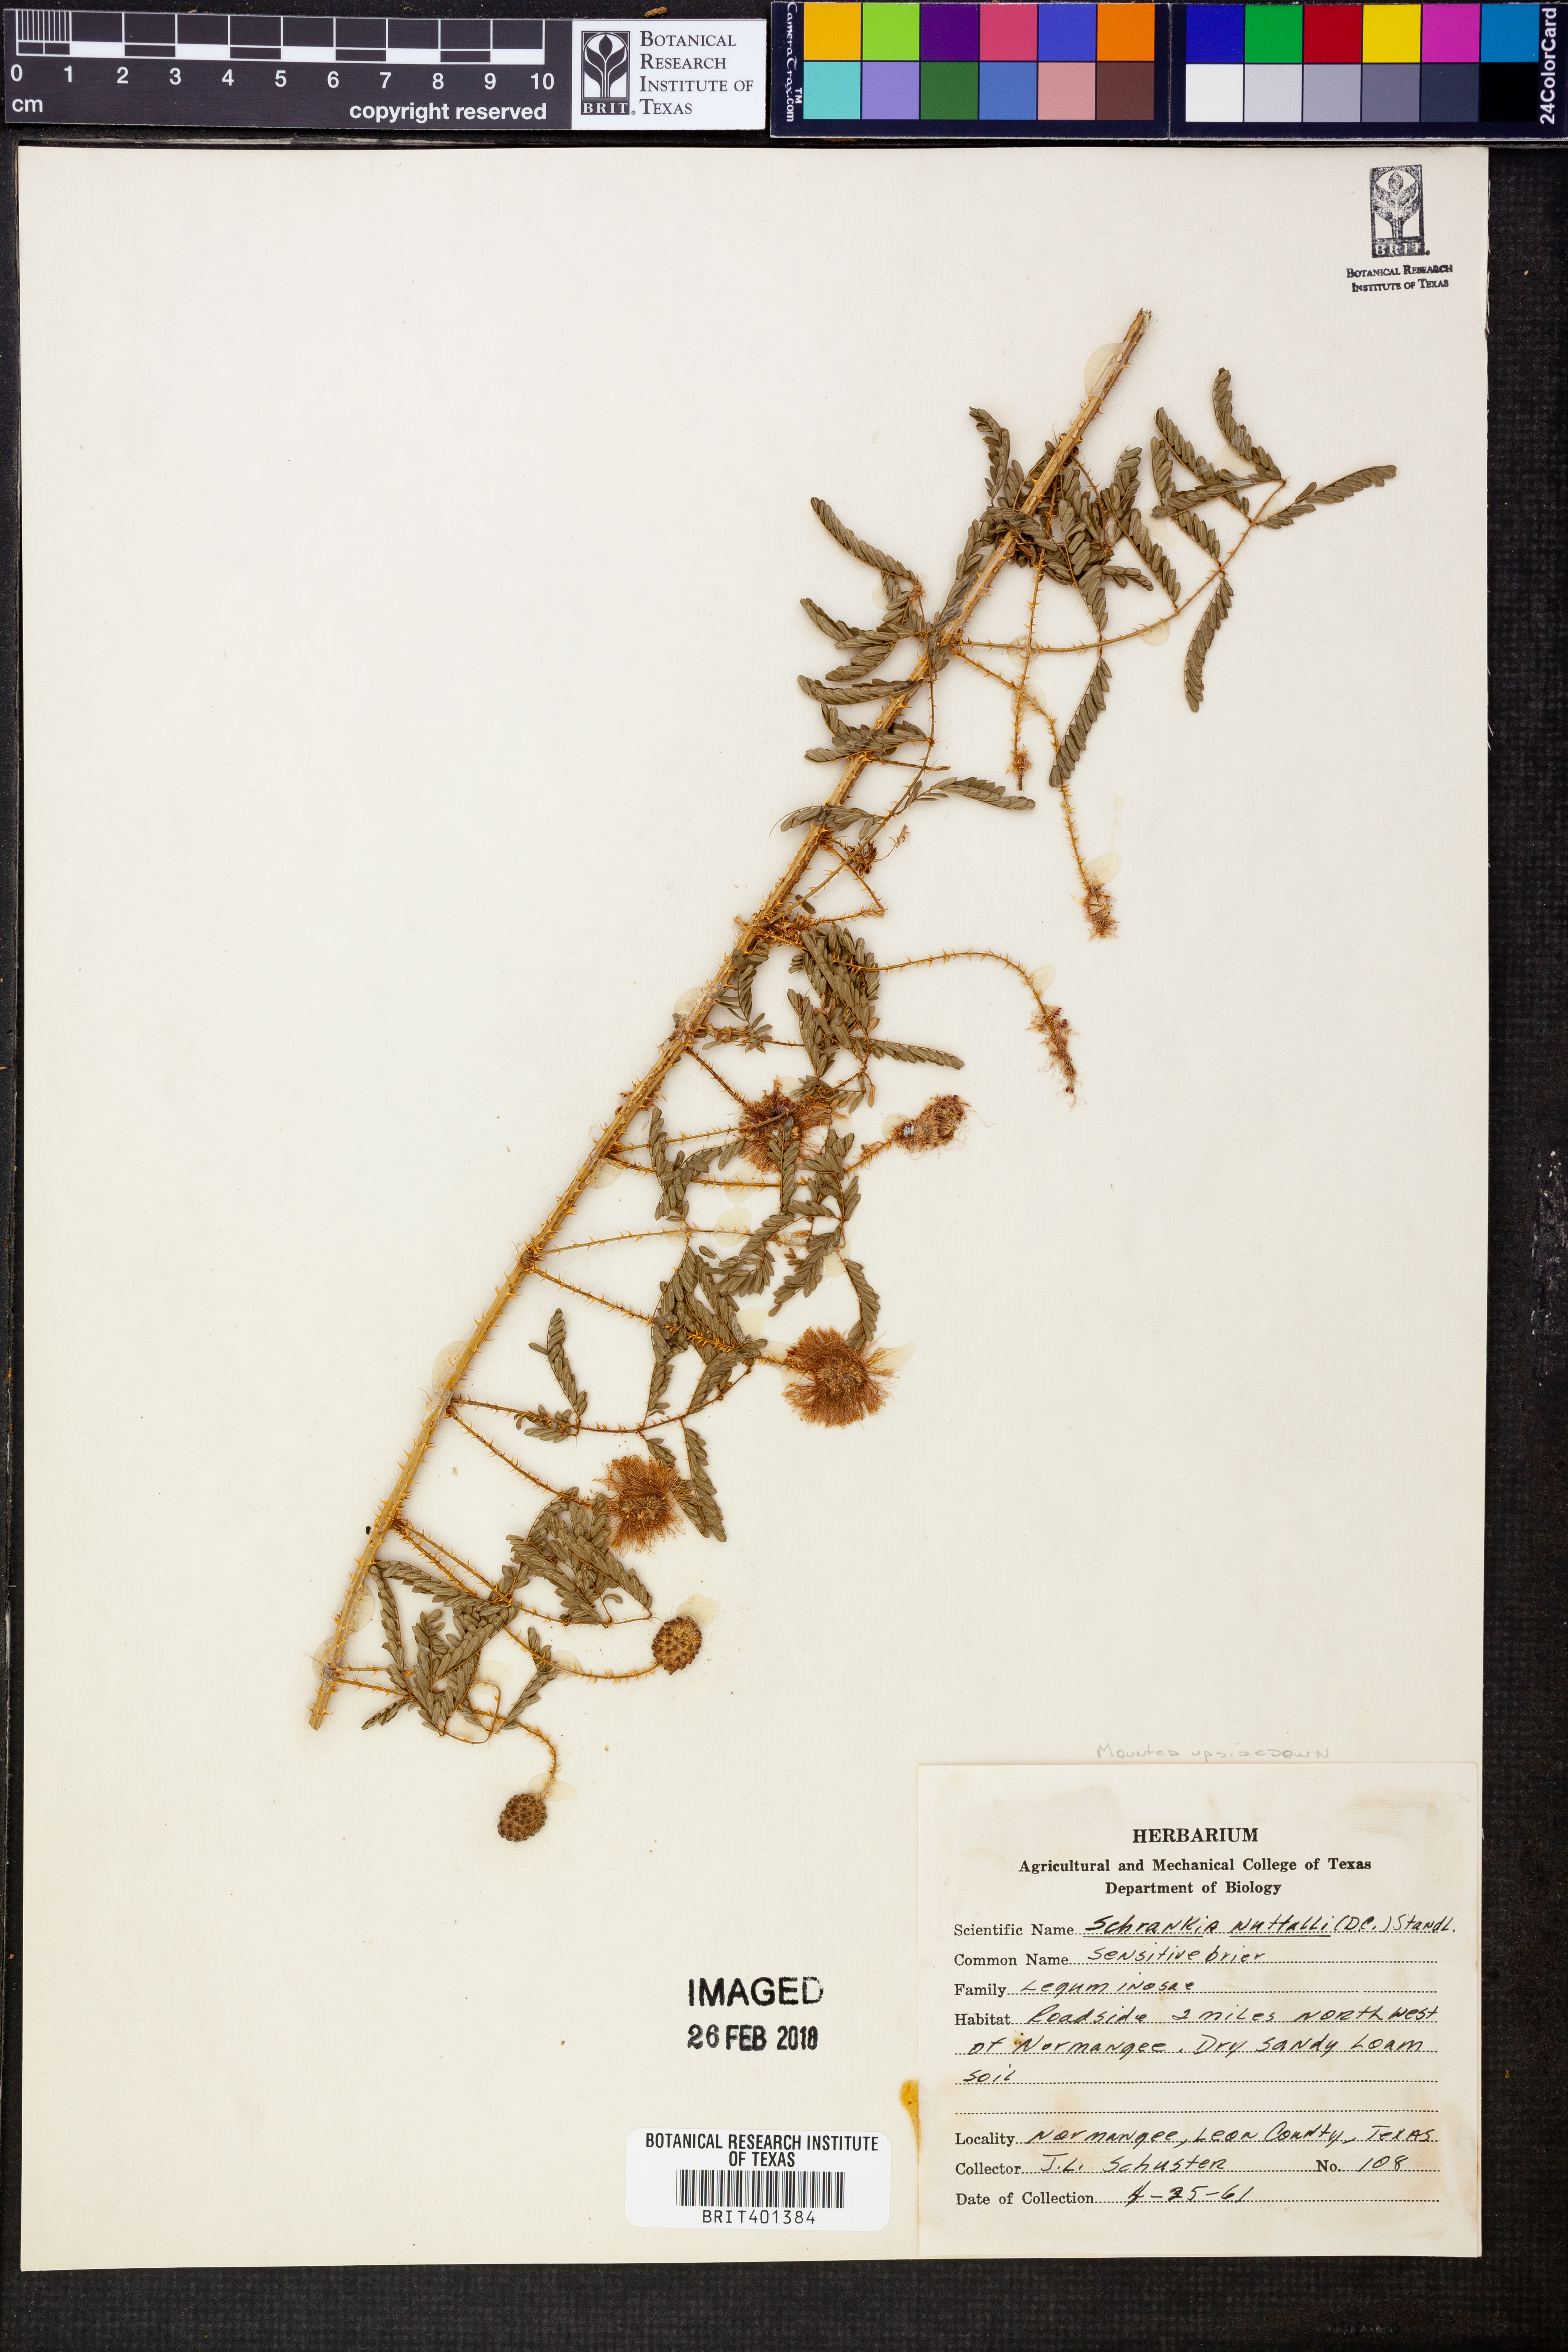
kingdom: Plantae
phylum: Tracheophyta
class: Magnoliopsida
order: Fabales
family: Fabaceae
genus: Mimosa
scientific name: Mimosa quadrivalvis
